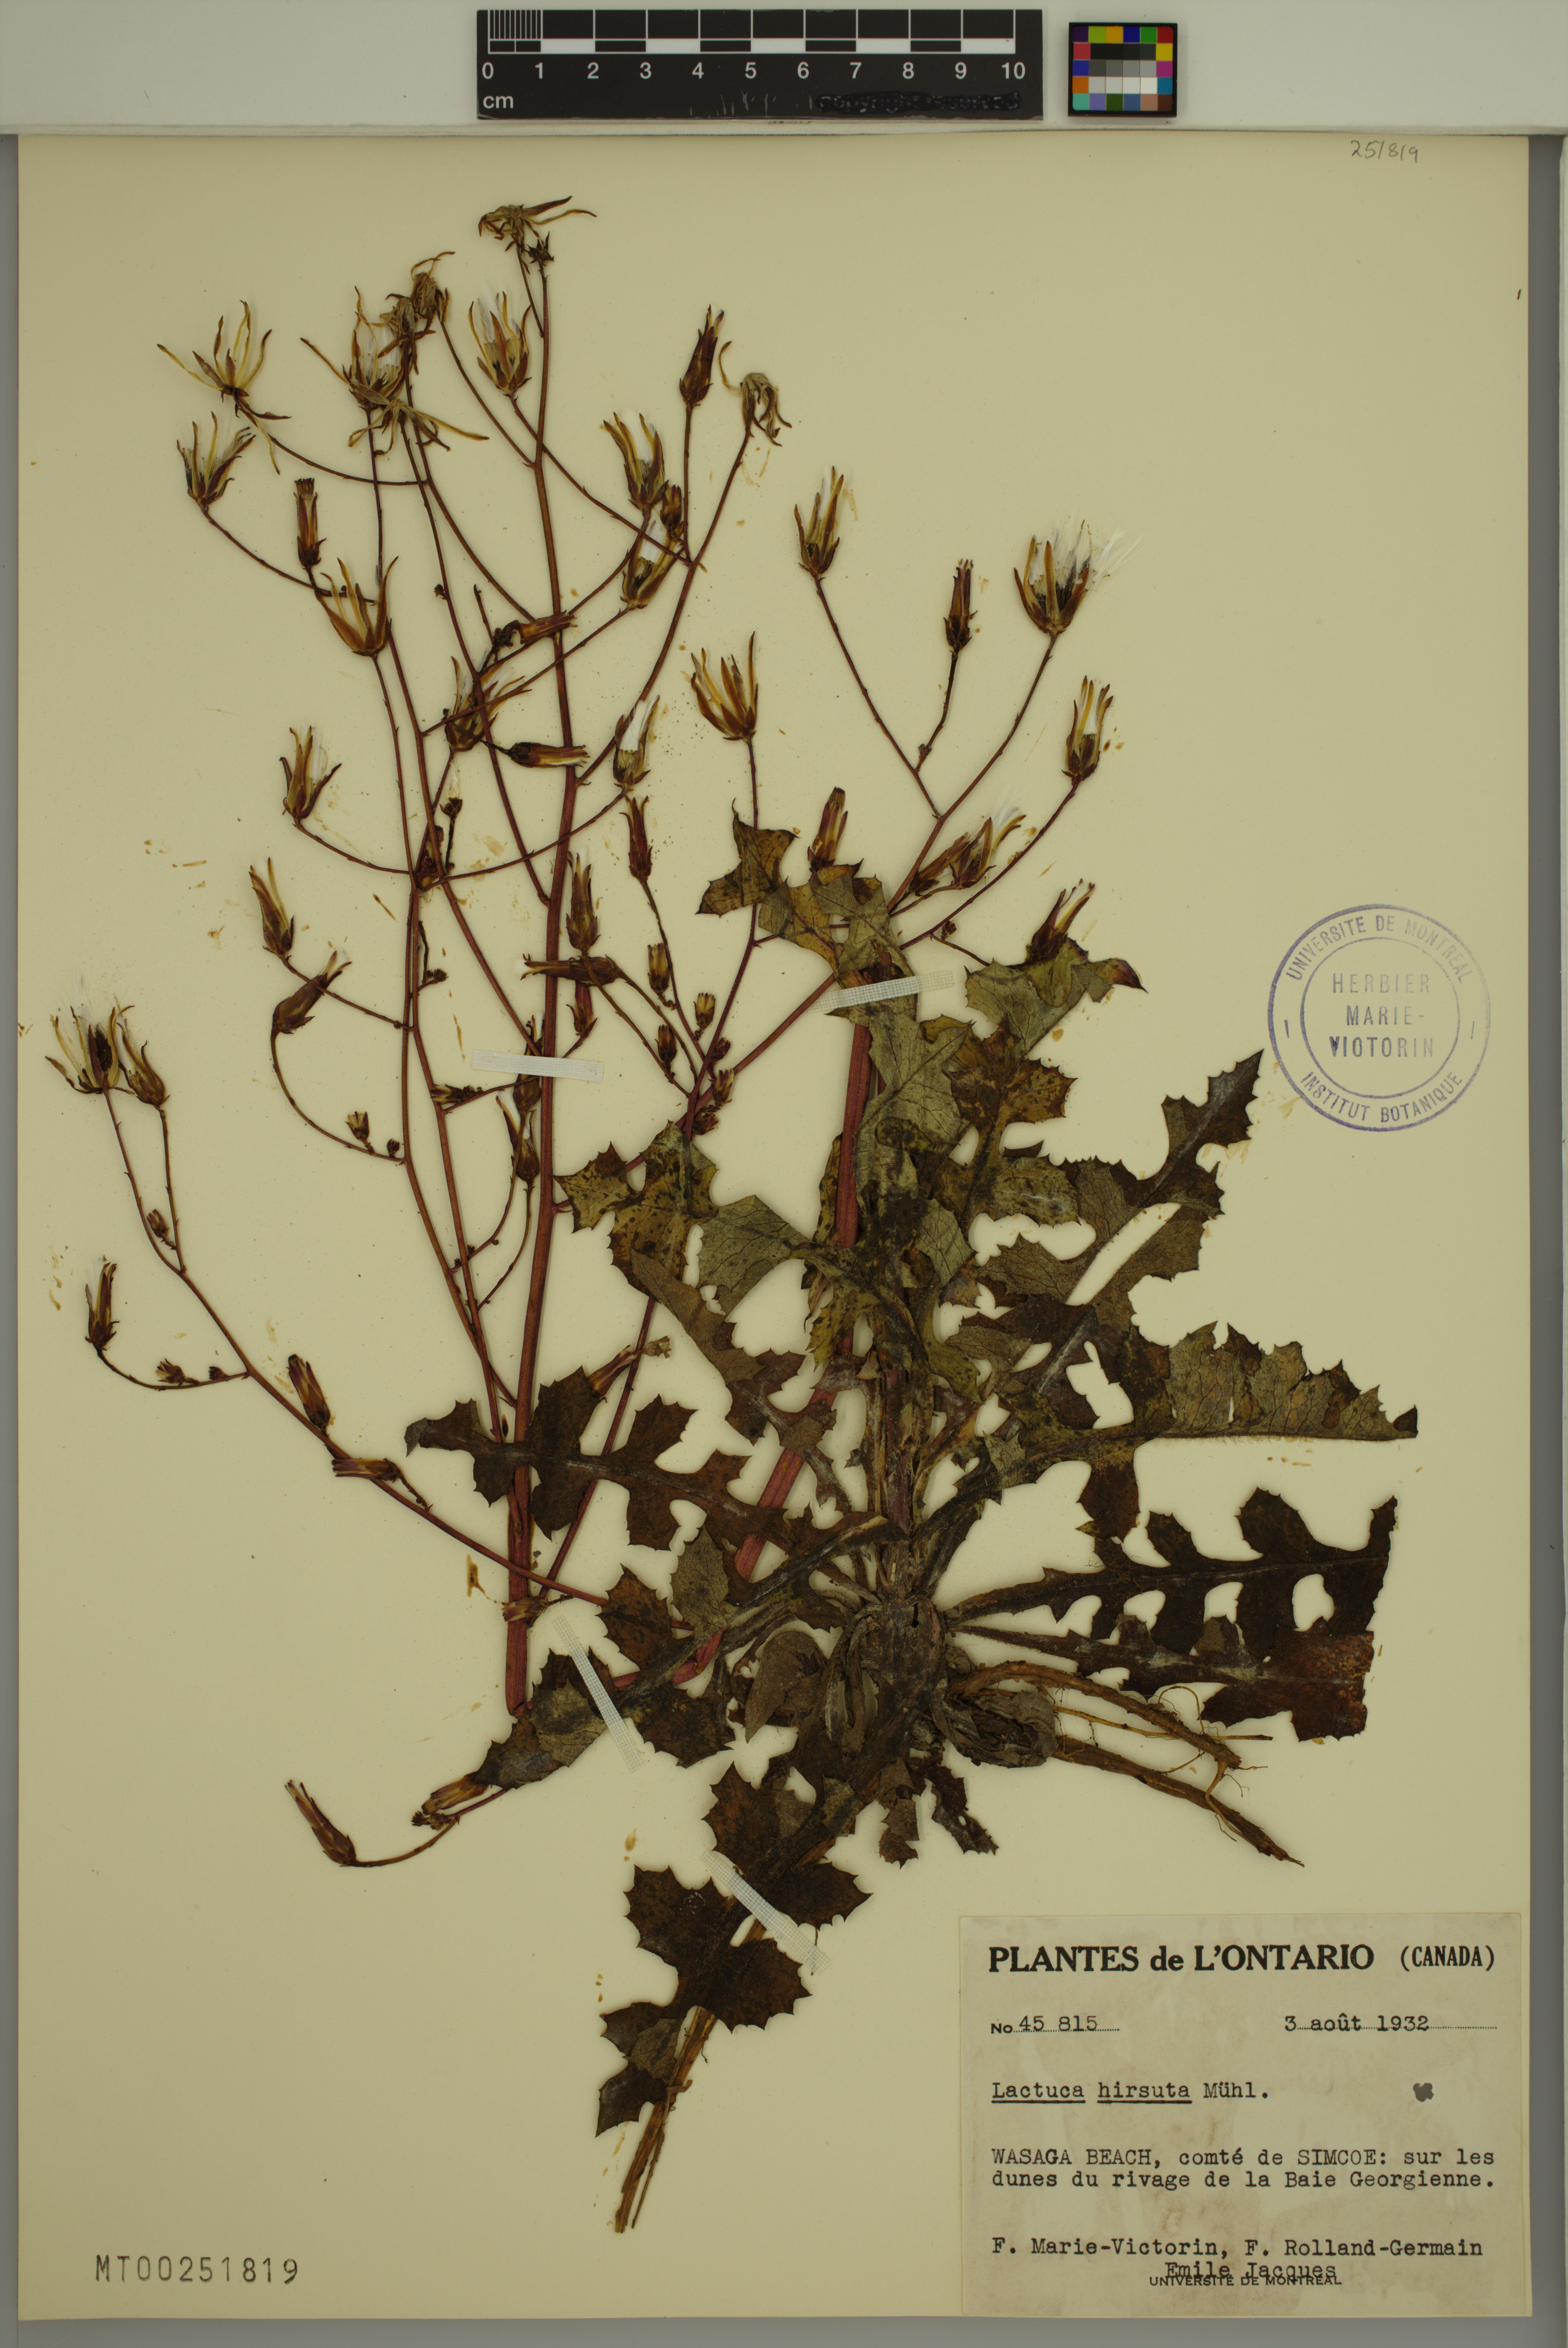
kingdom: Plantae
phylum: Tracheophyta
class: Magnoliopsida
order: Asterales
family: Asteraceae
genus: Lactuca
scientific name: Lactuca hirsuta
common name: Hairy lettuce
